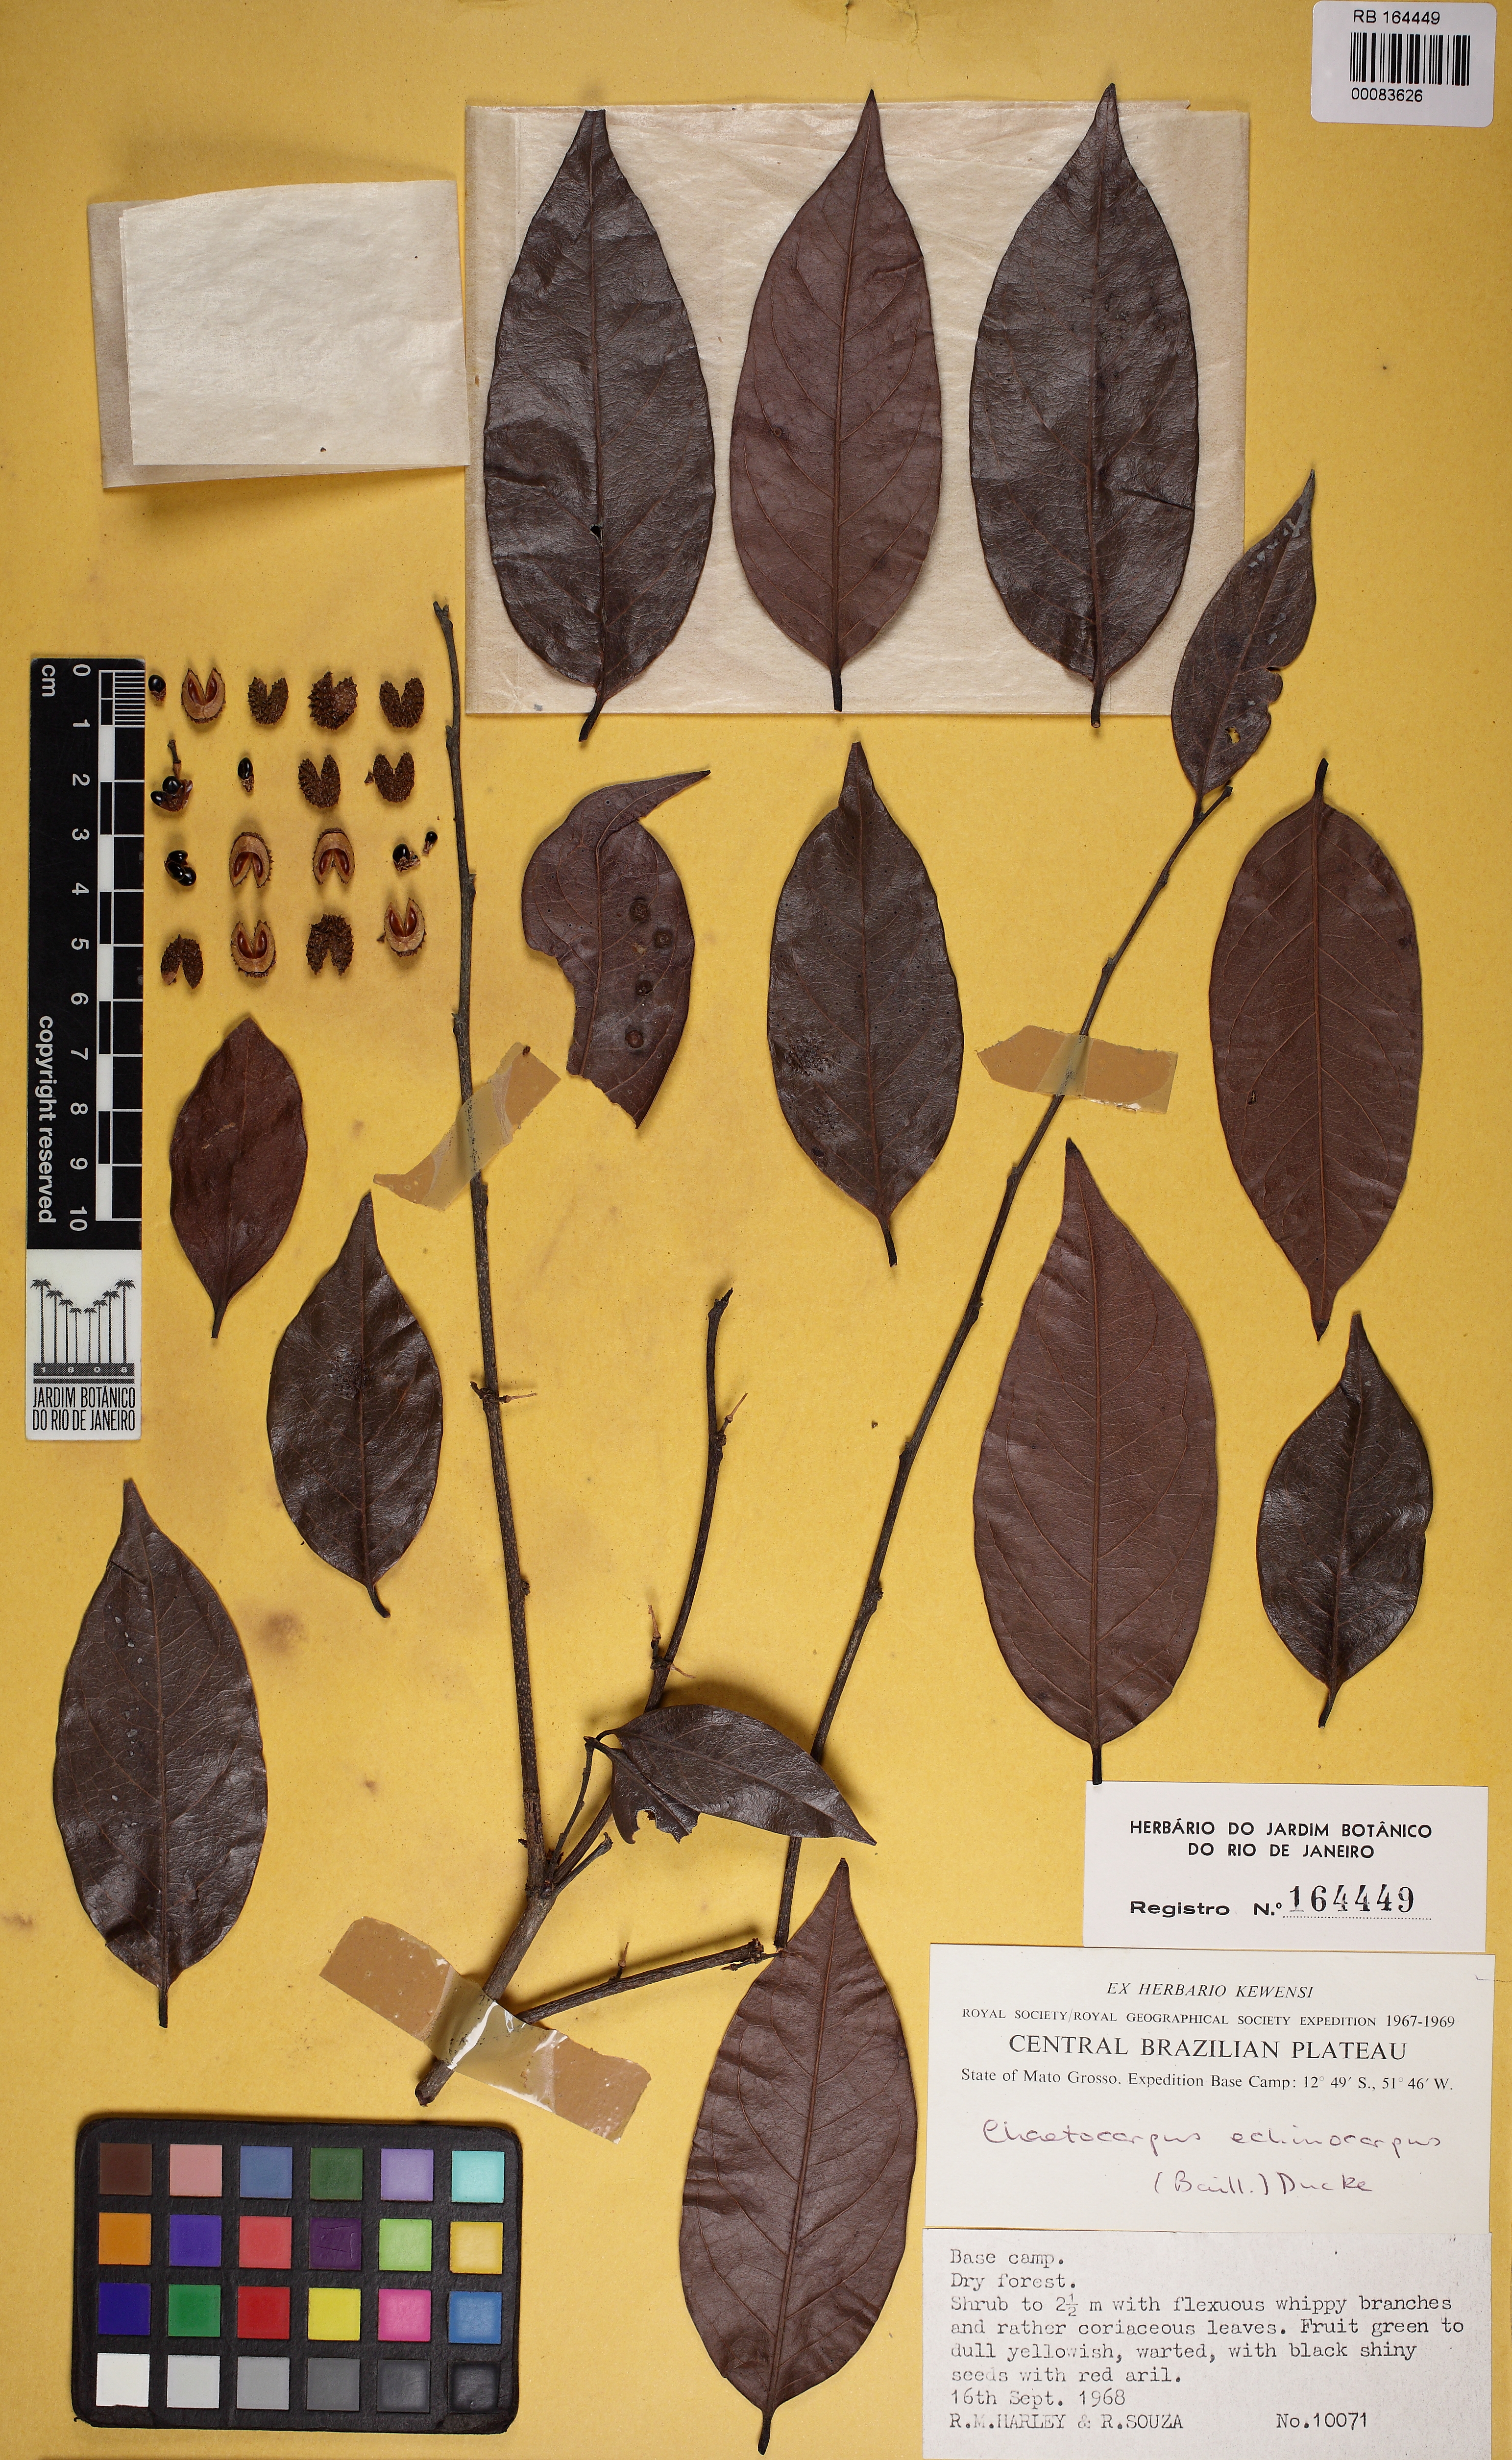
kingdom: Plantae
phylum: Tracheophyta
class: Magnoliopsida
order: Malpighiales
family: Peraceae
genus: Chaetocarpus
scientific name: Chaetocarpus echinocarpus
